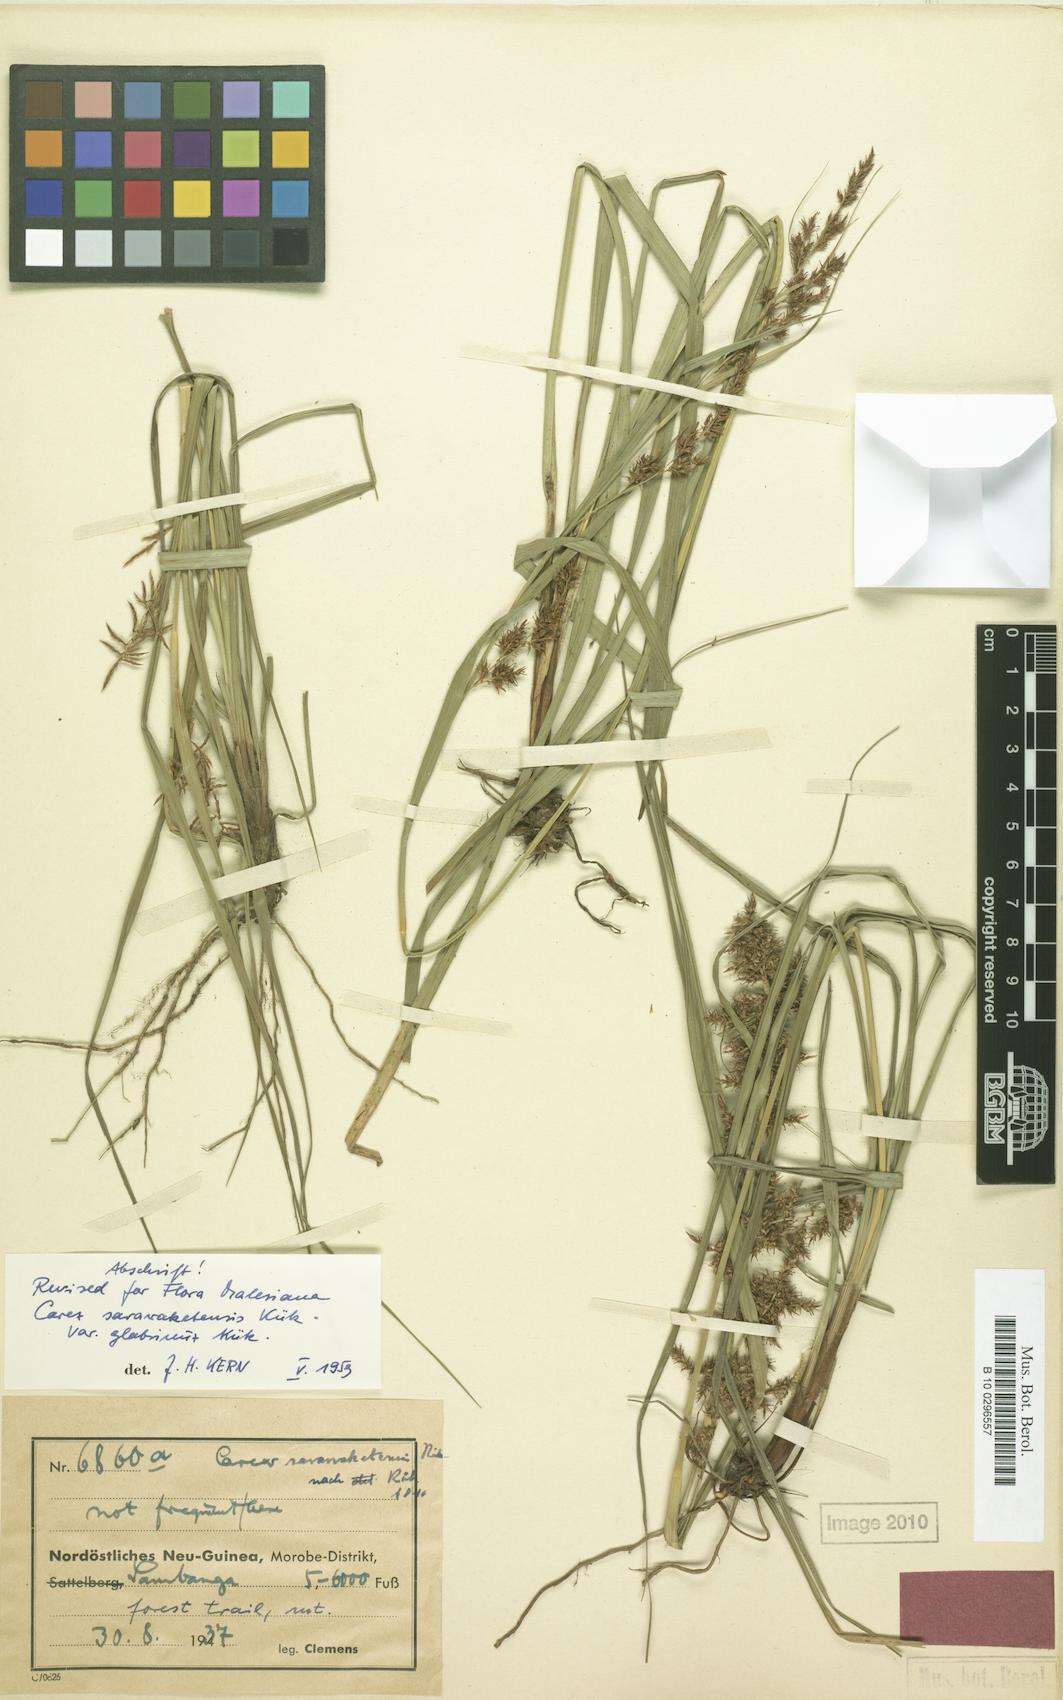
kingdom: Plantae
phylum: Tracheophyta
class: Liliopsida
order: Poales
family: Cyperaceae
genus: Carex
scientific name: Carex sarawaketensis
